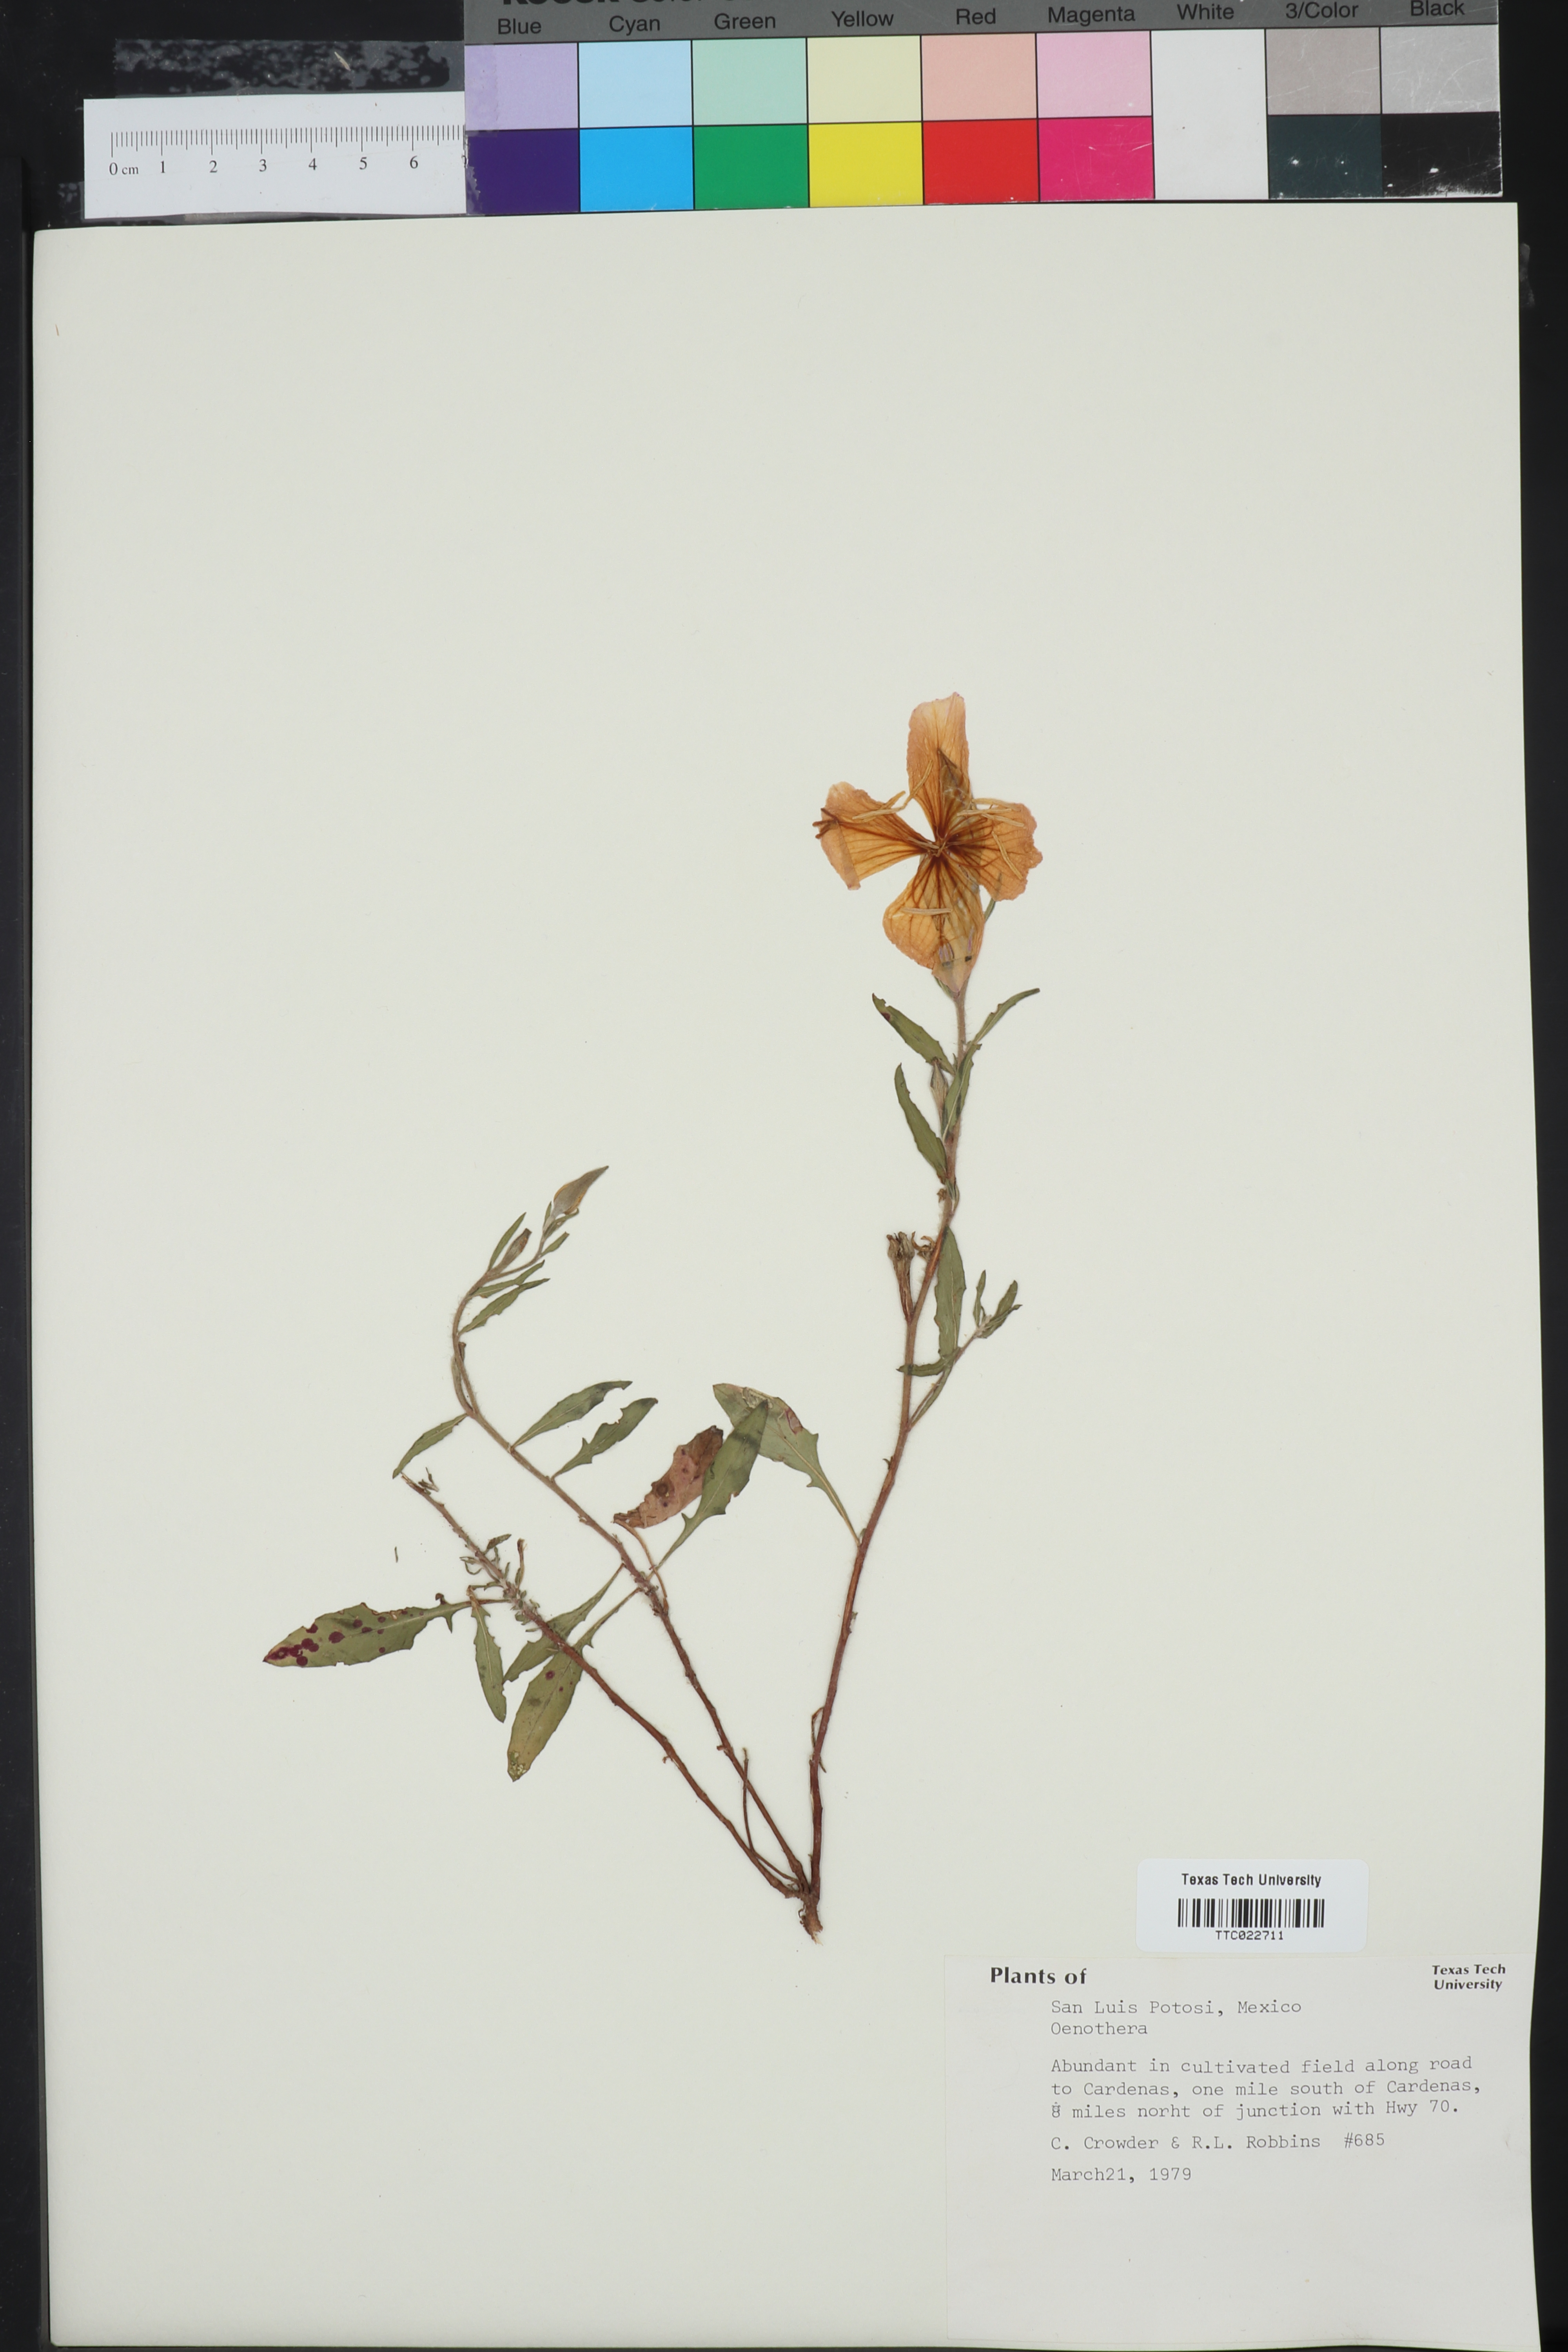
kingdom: Plantae
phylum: Tracheophyta
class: Magnoliopsida
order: Myrtales
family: Onagraceae
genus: Oenothera
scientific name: Oenothera
